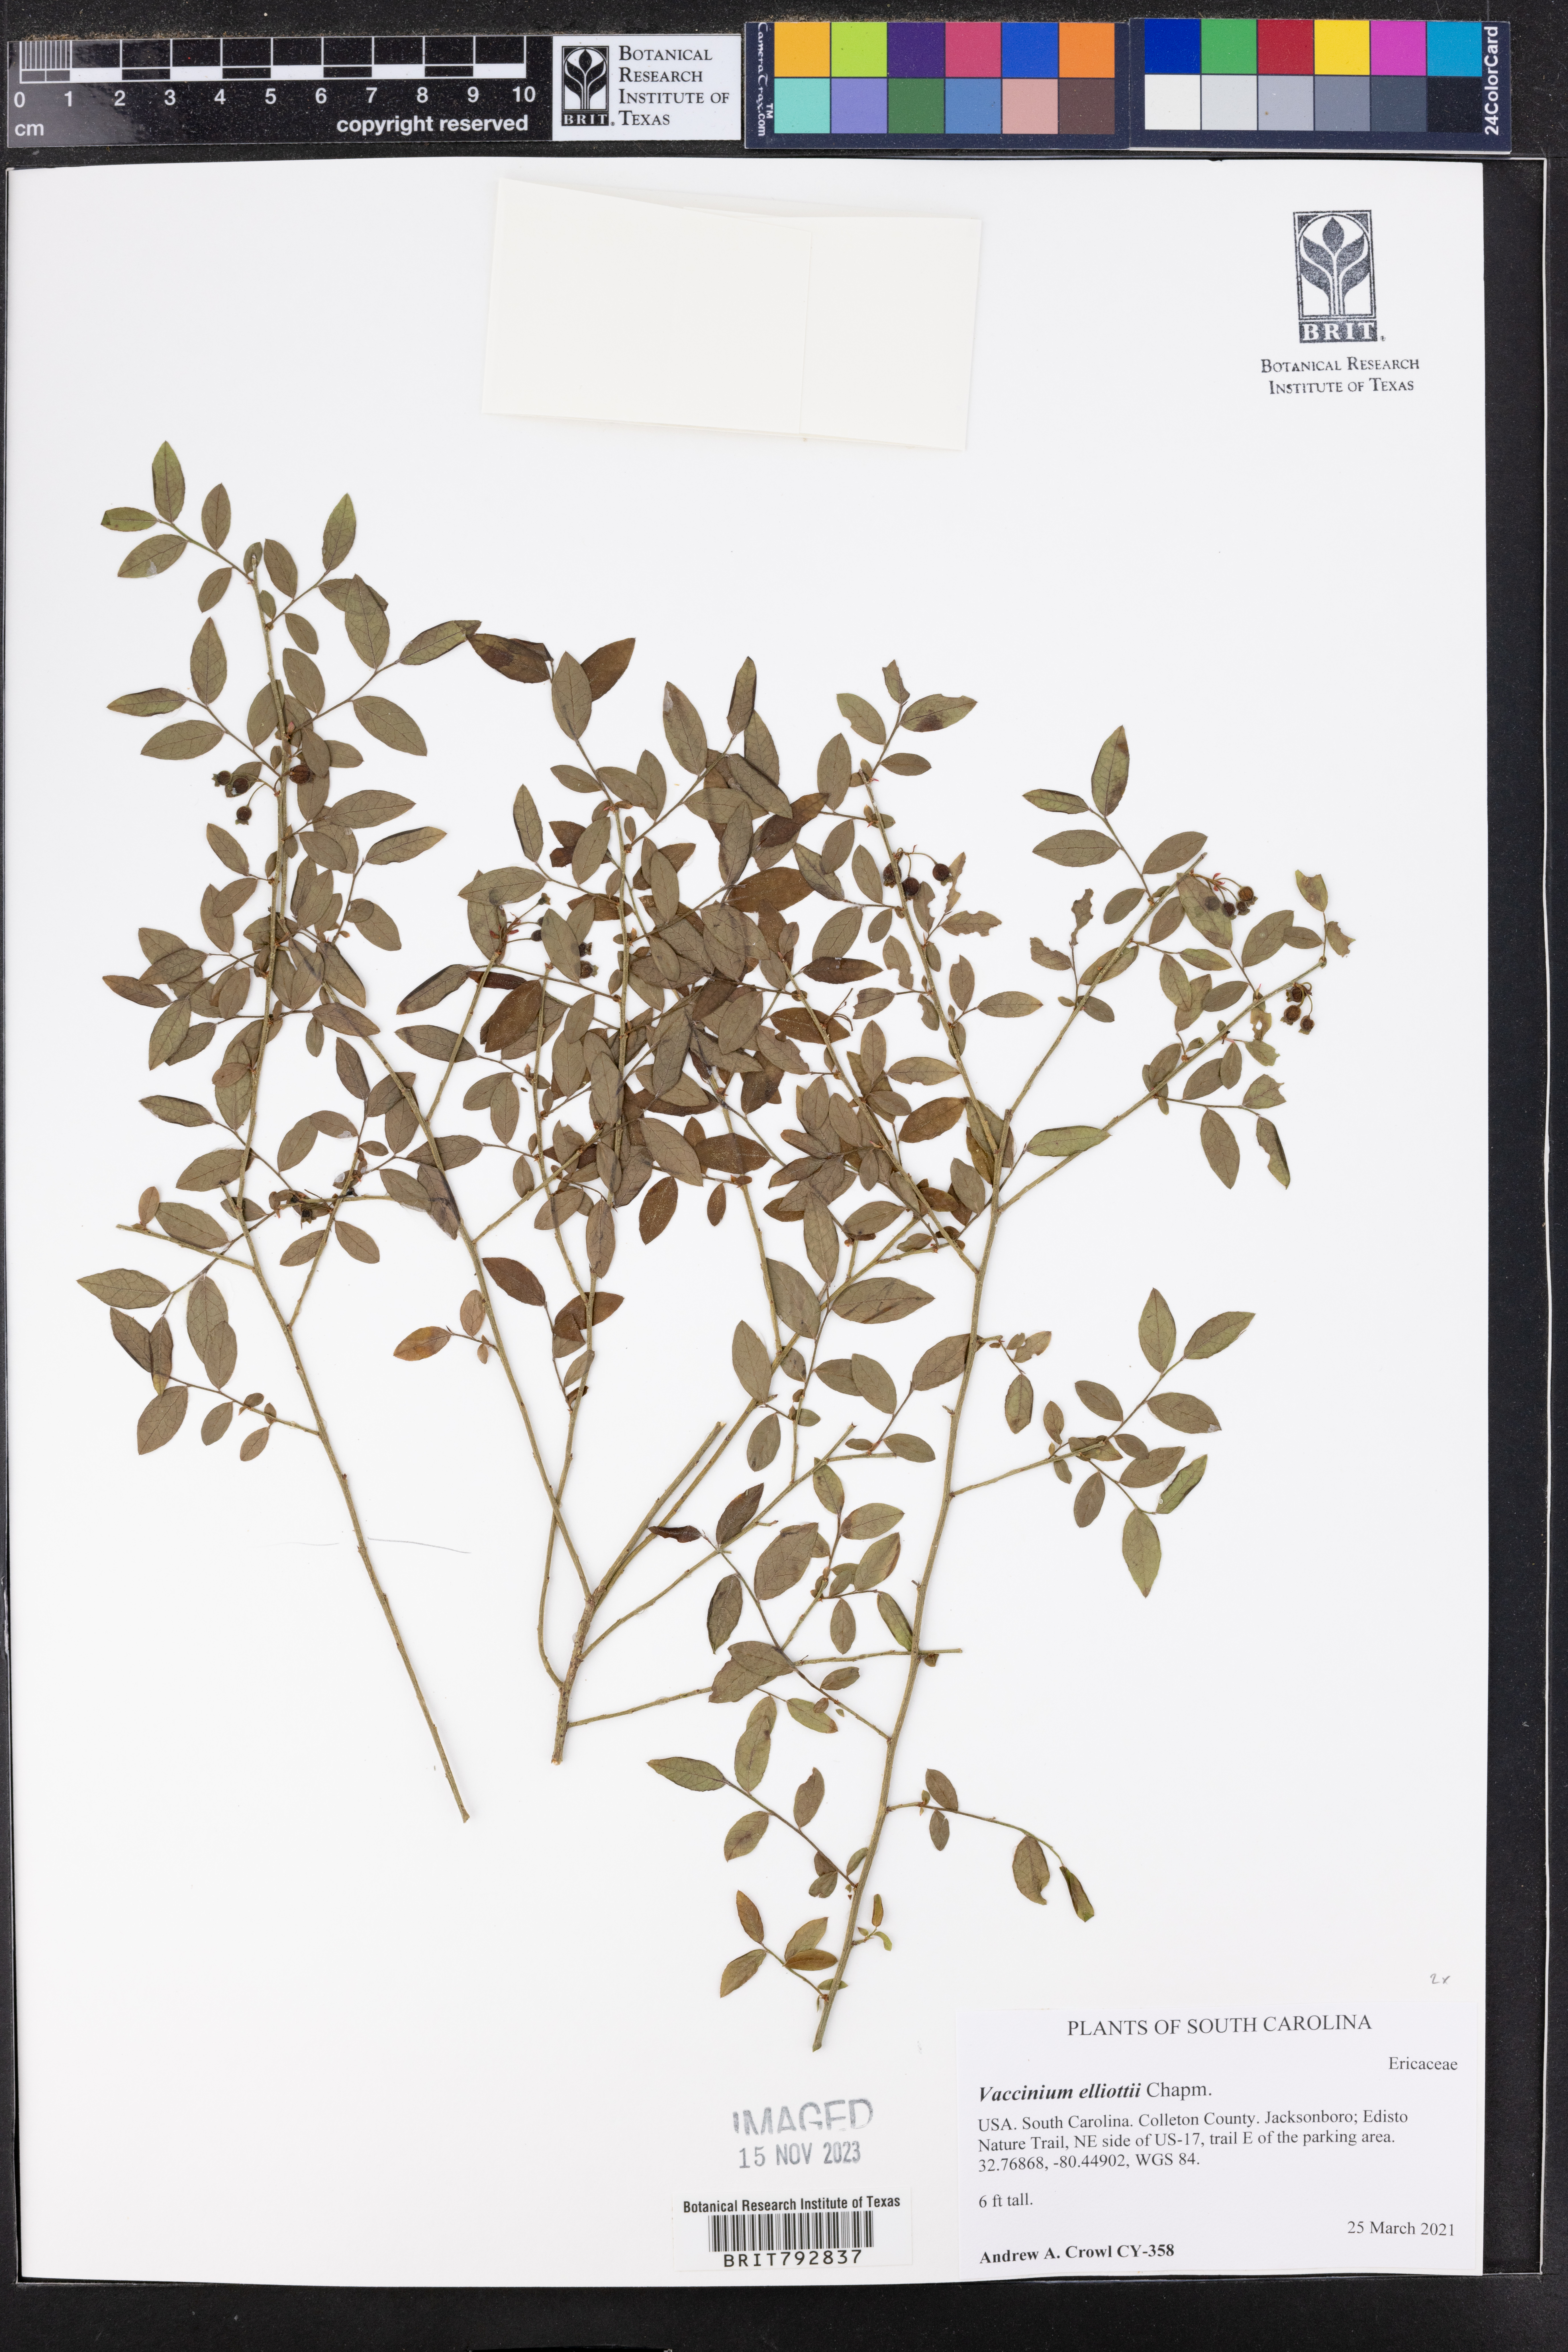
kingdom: Plantae
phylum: Tracheophyta
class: Magnoliopsida
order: Ericales
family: Ericaceae
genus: Vaccinium
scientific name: Vaccinium corymbosum
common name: Blueberry
